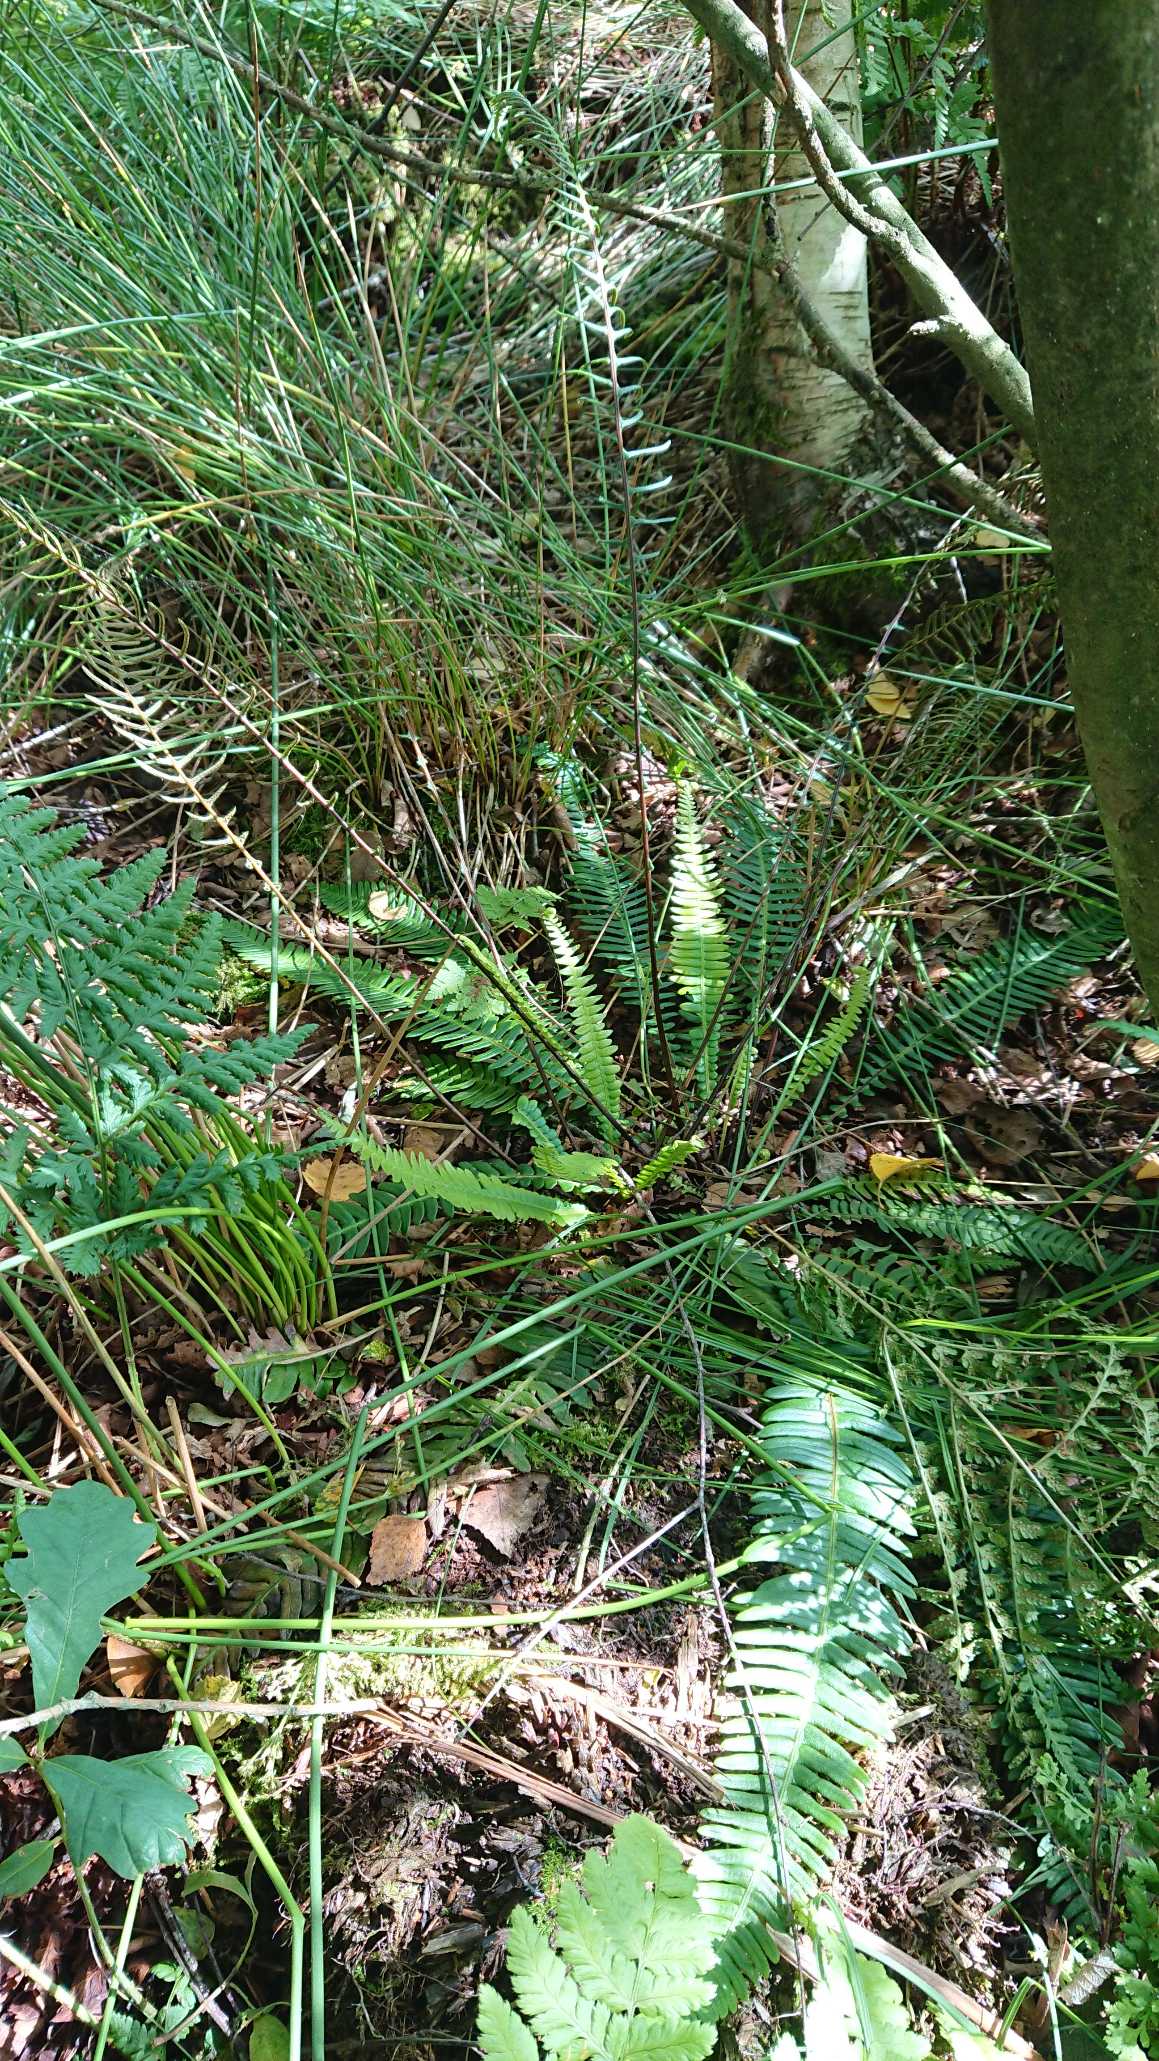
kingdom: Plantae
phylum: Tracheophyta
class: Polypodiopsida
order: Polypodiales
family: Blechnaceae
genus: Struthiopteris
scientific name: Struthiopteris spicant
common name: Kambregne
